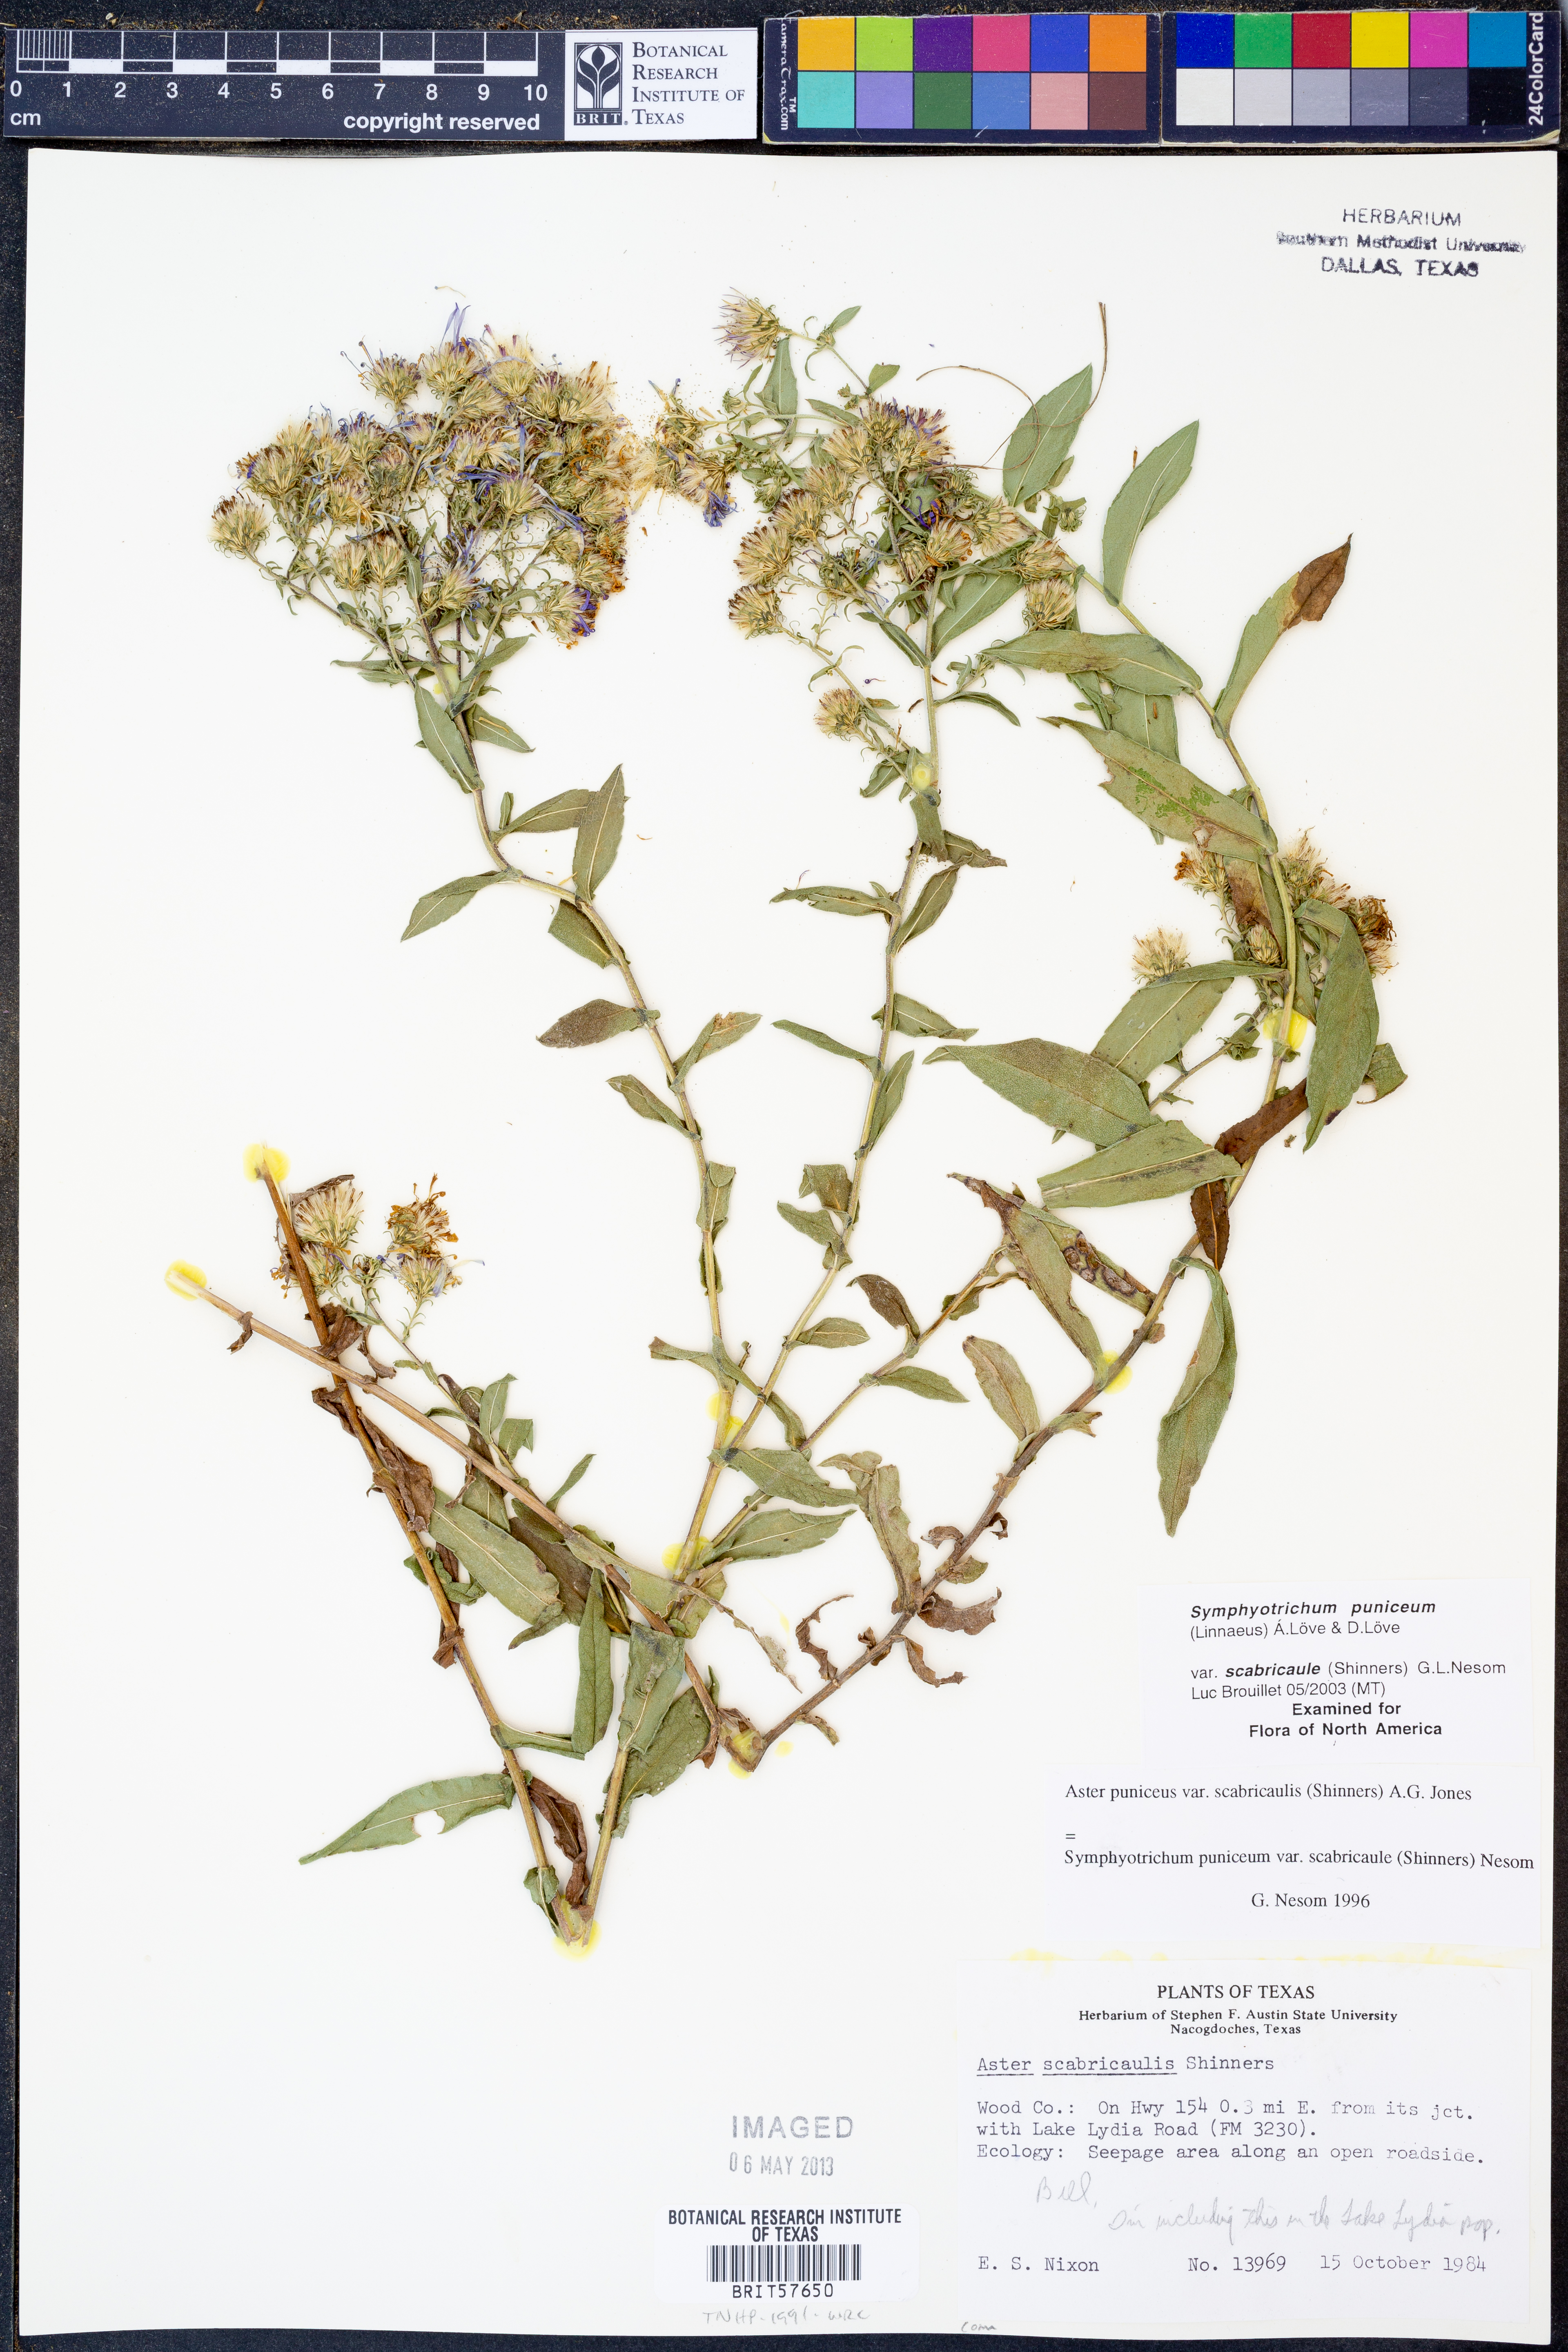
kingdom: Plantae
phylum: Tracheophyta
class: Magnoliopsida
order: Asterales
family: Asteraceae
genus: Symphyotrichum
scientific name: Symphyotrichum puniceum
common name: Bog aster
